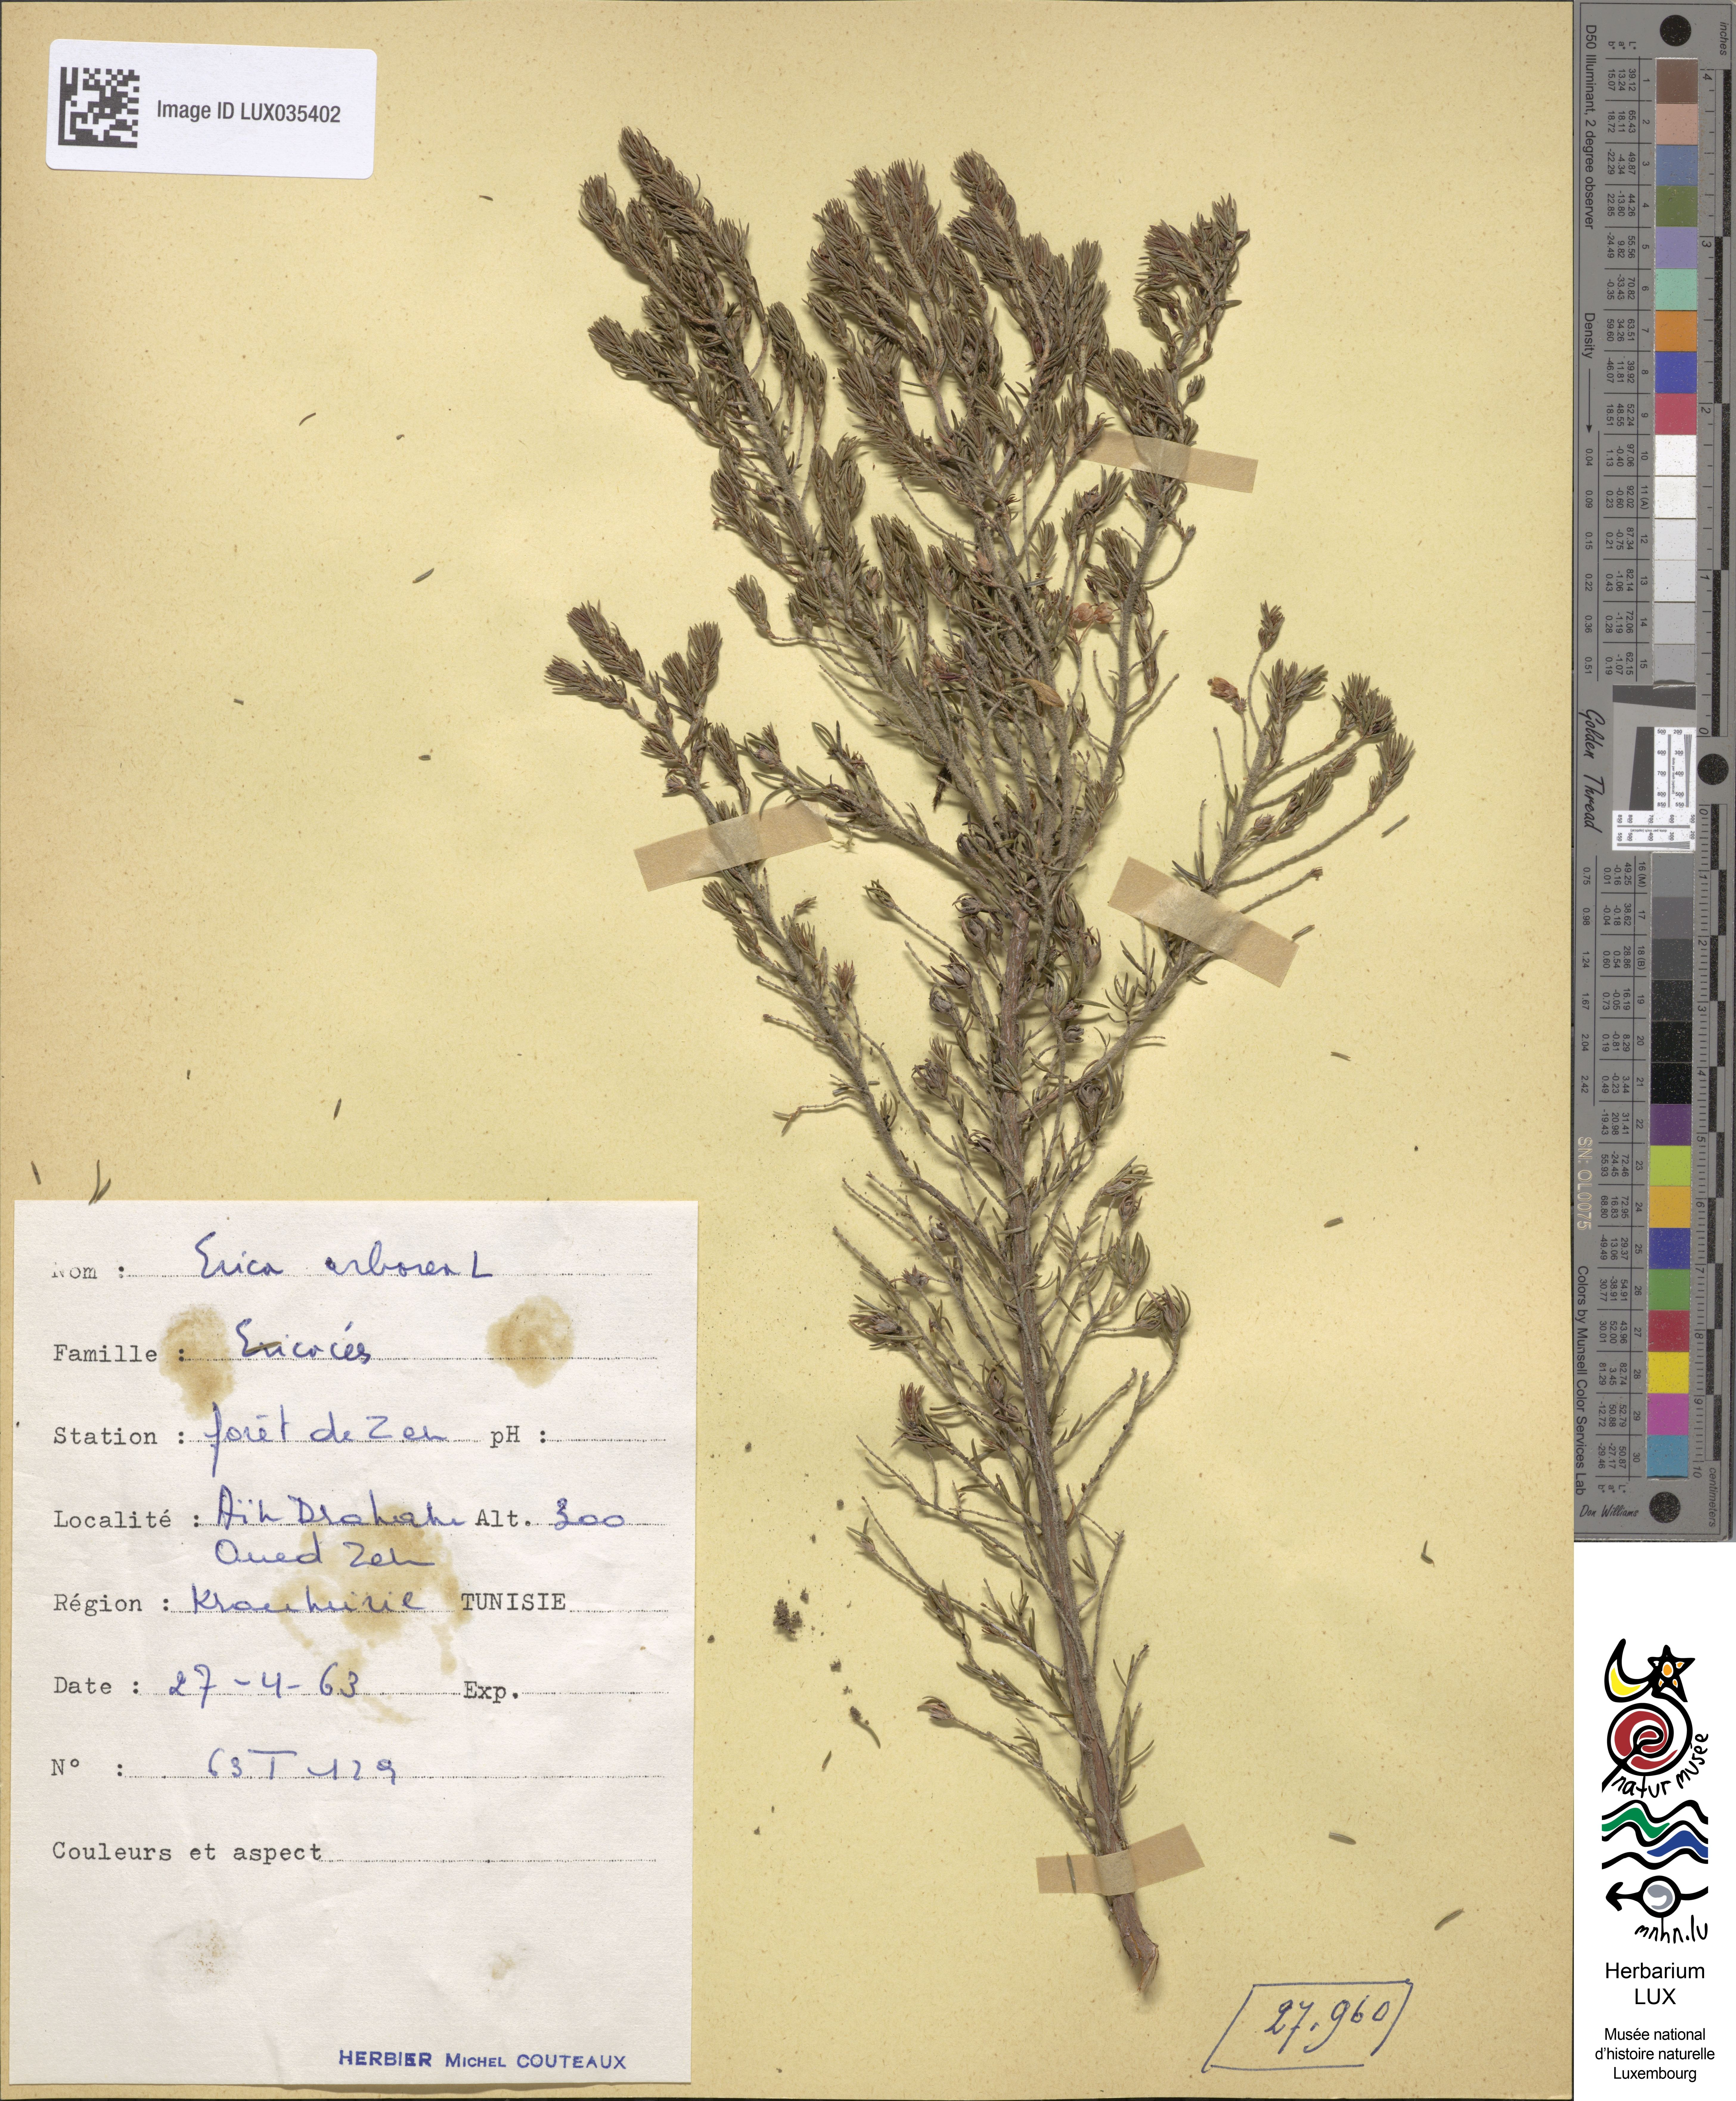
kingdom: Plantae
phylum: Tracheophyta
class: Magnoliopsida
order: Ericales
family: Ericaceae
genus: Erica
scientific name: Erica arborea
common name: Tree heath
